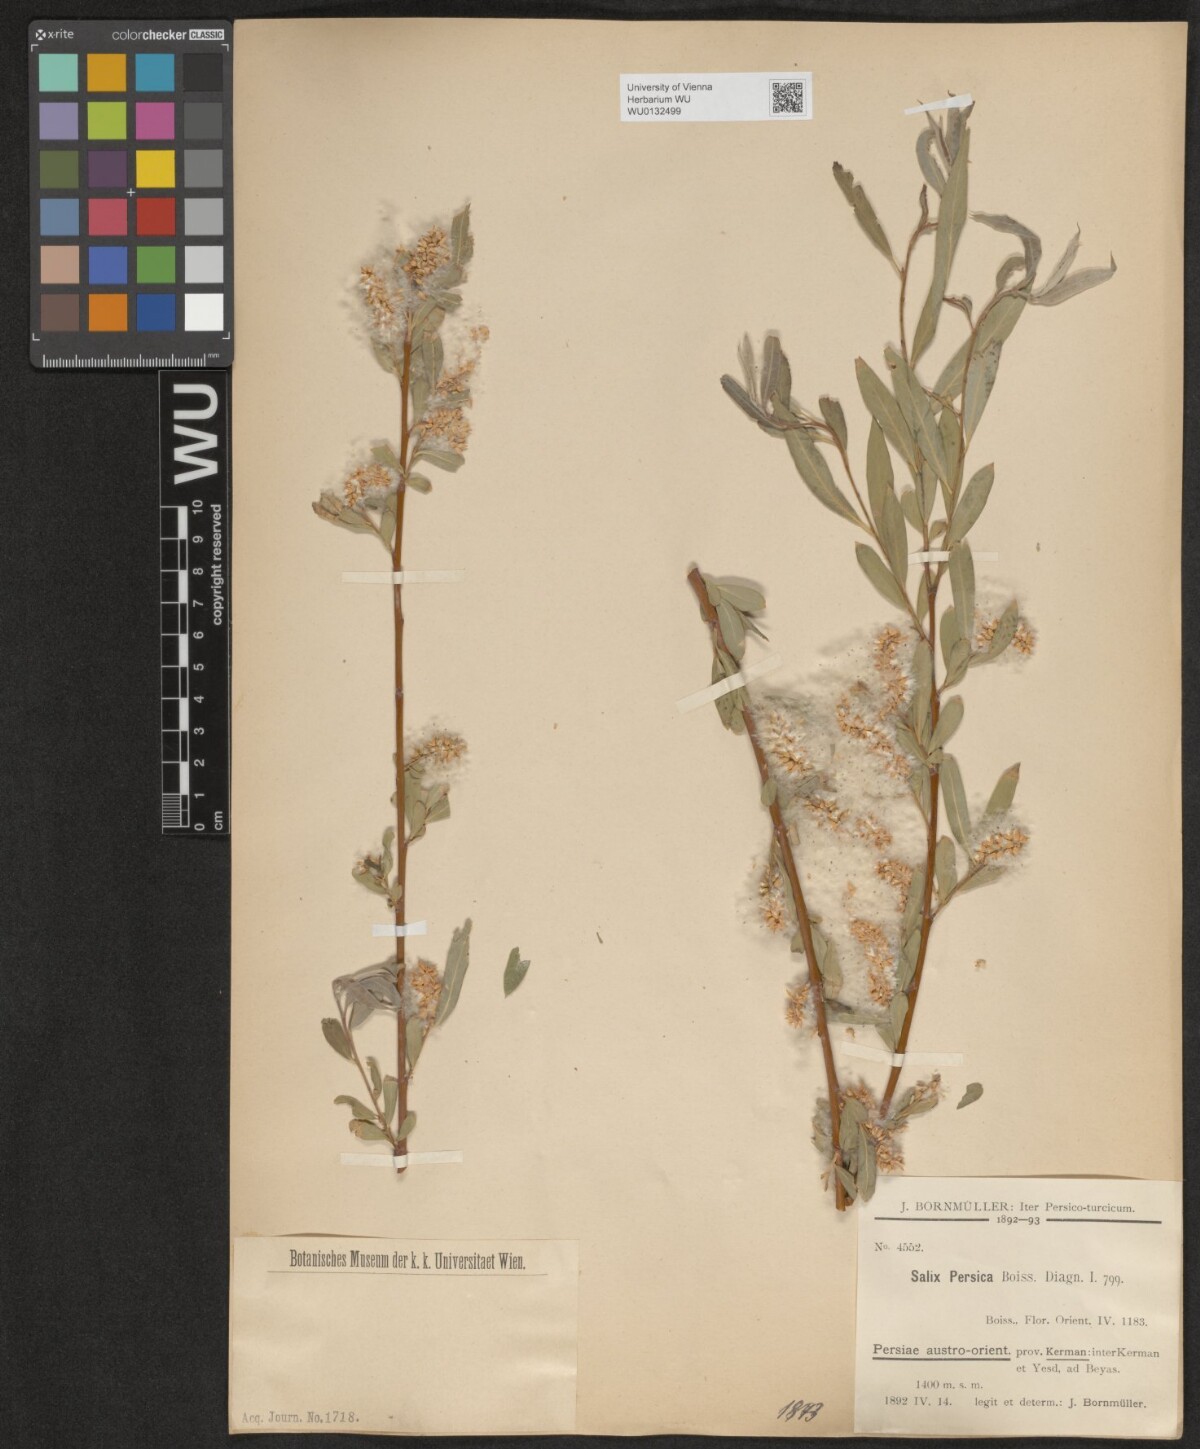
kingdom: Plantae
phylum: Tracheophyta
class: Magnoliopsida
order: Malpighiales
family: Salicaceae
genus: Salix
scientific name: Salix acmophylla
